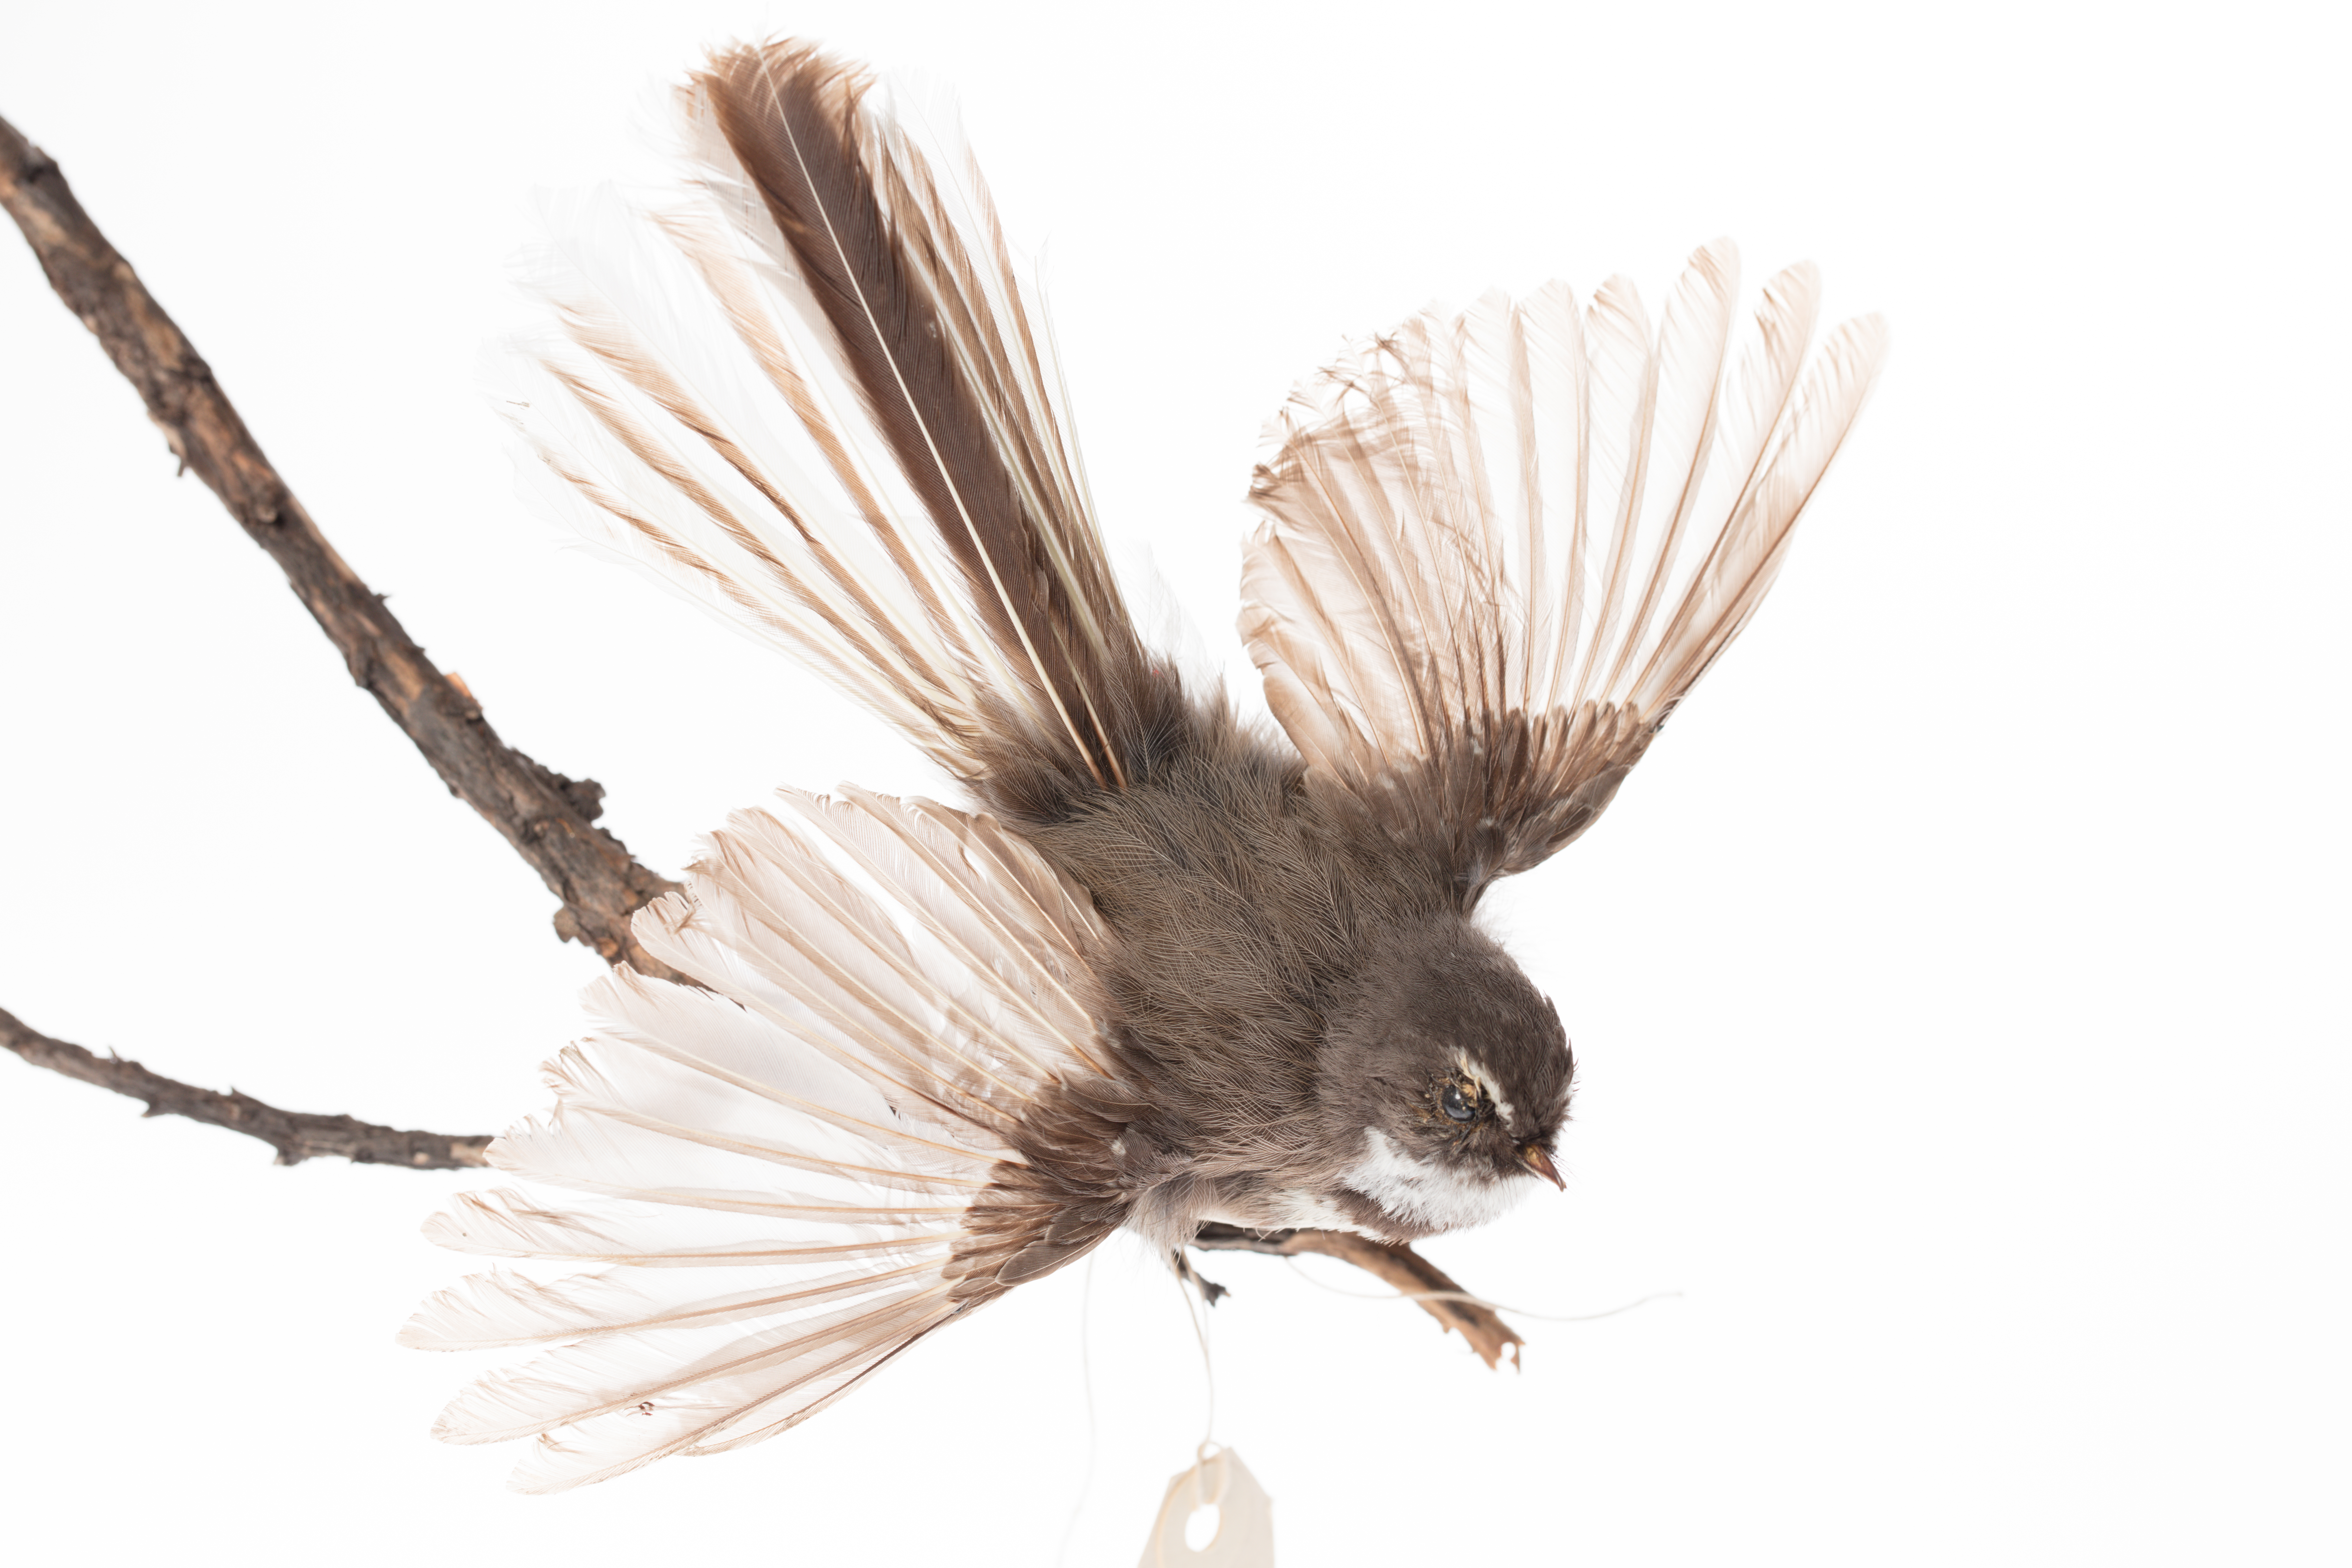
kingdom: Animalia
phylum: Chordata
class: Aves
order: Passeriformes
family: Rhipiduridae
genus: Rhipidura
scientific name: Rhipidura fuliginosa
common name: New zealand fantail
